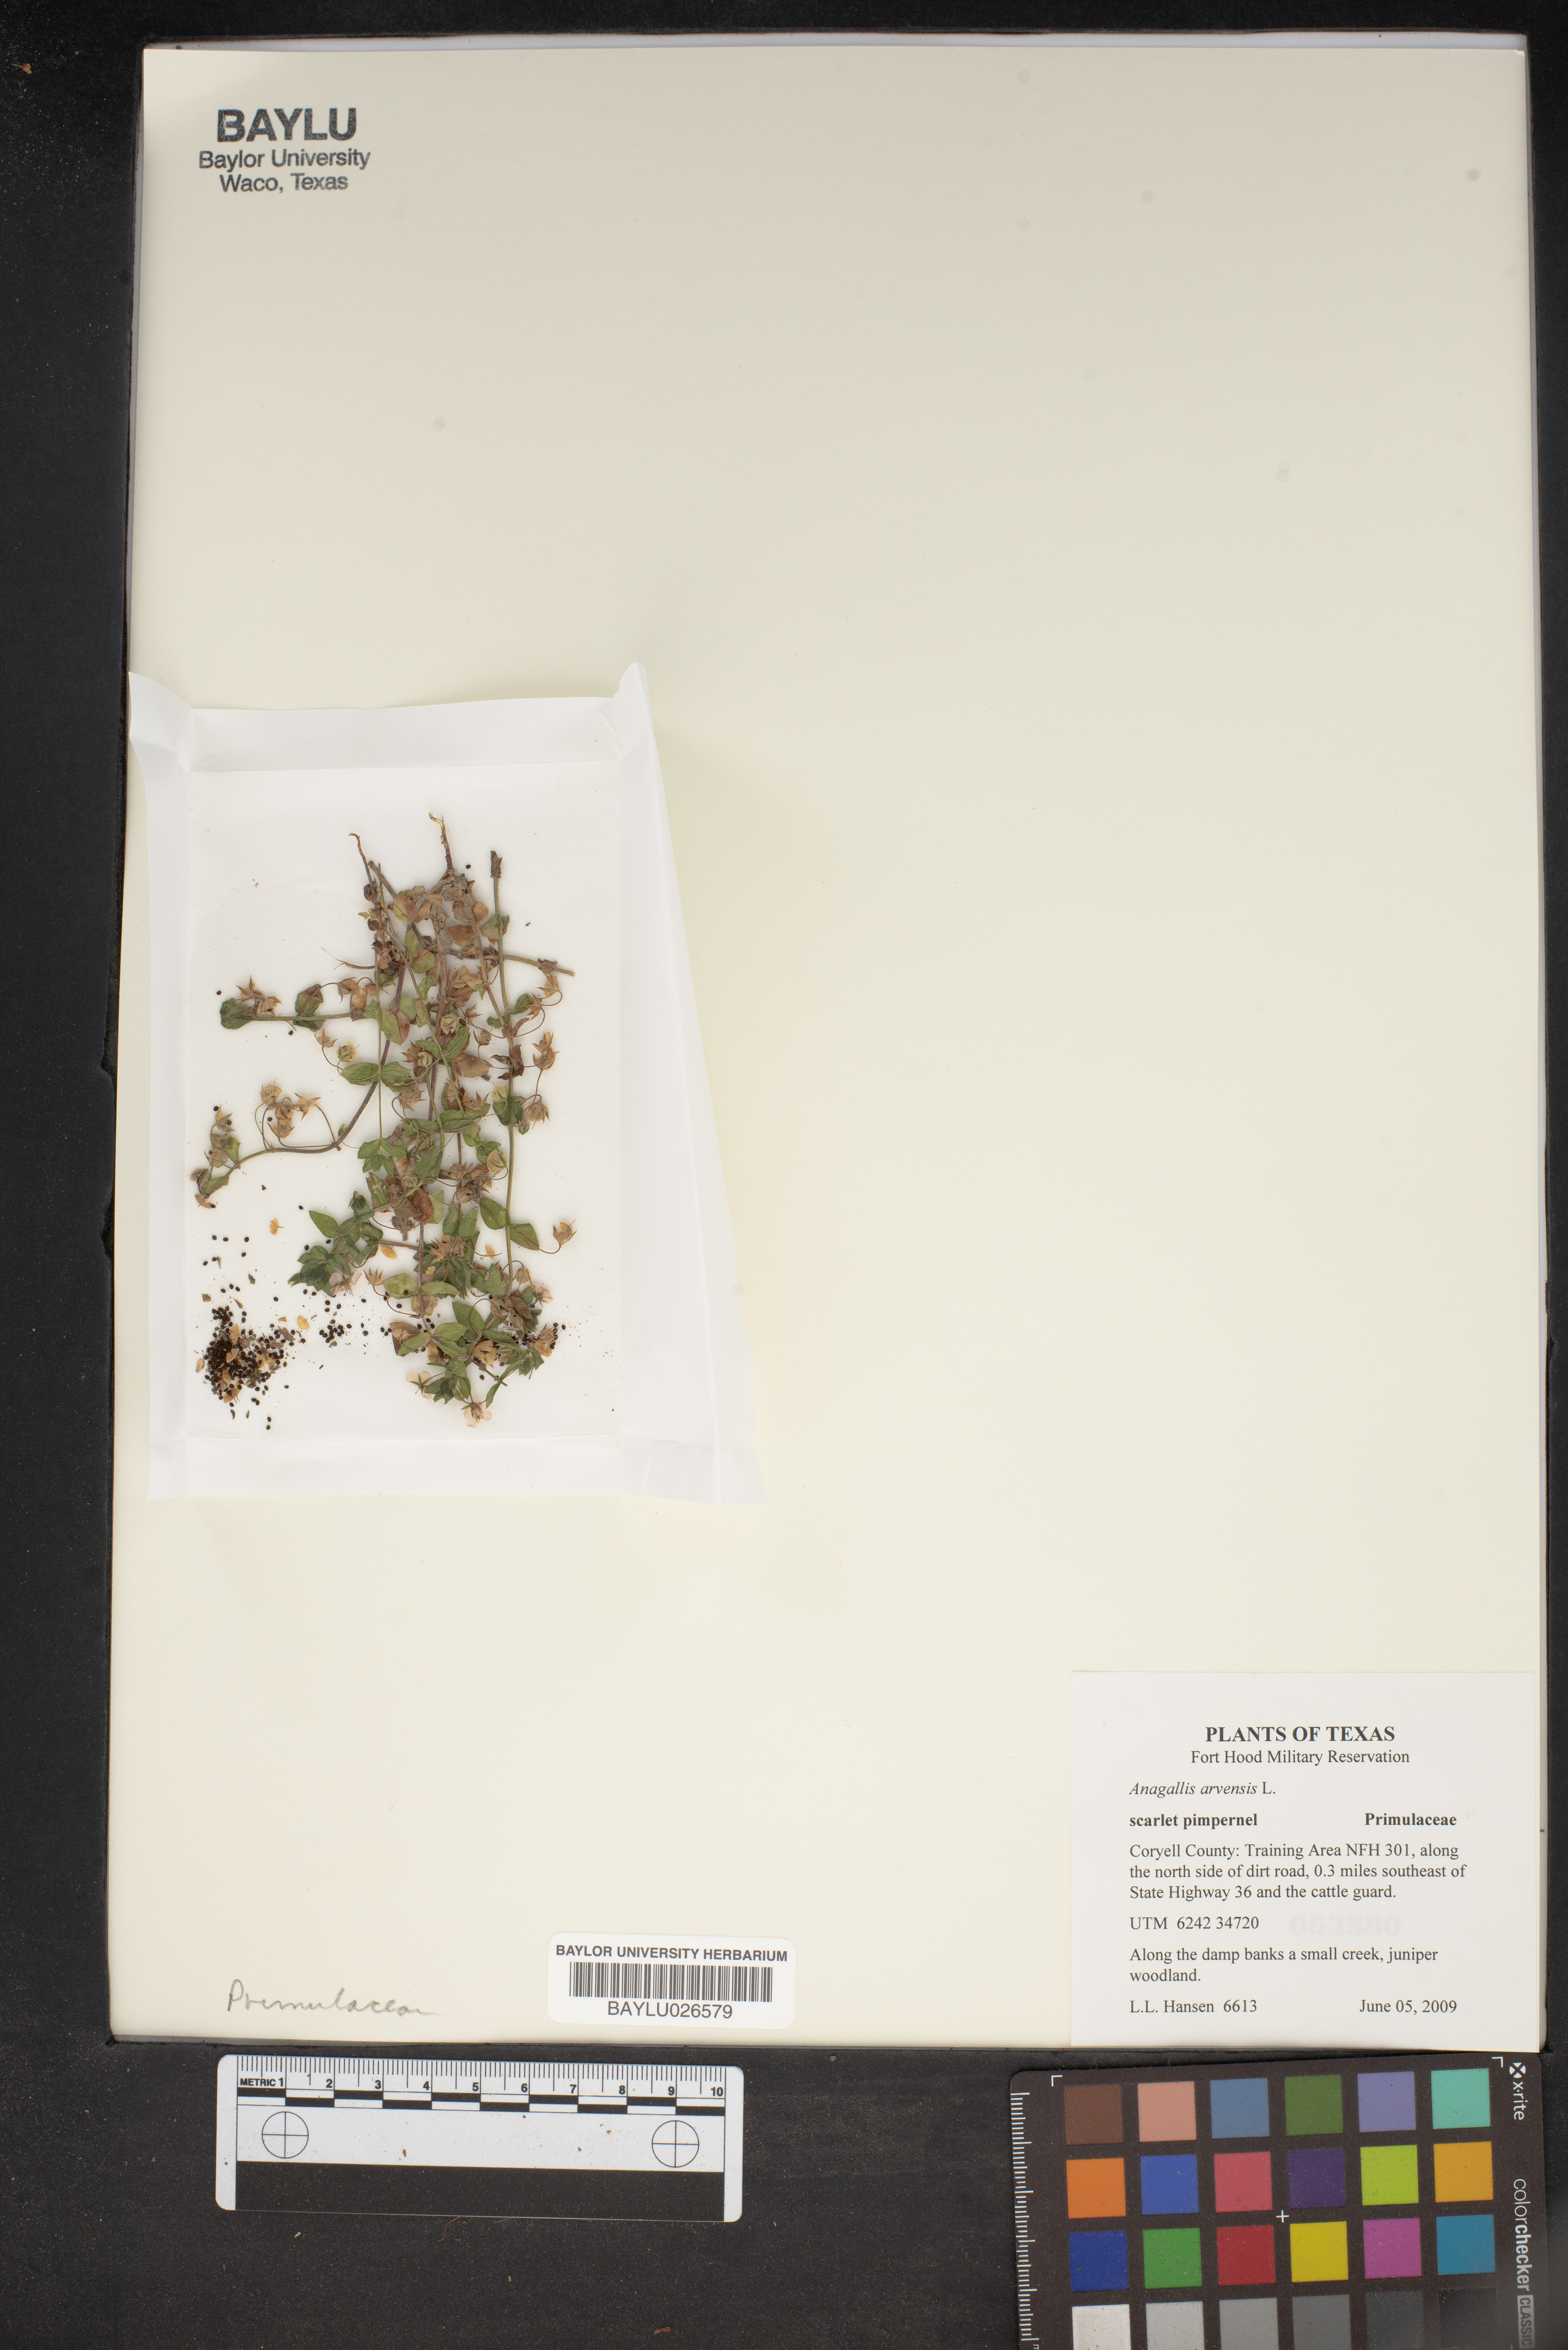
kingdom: Plantae
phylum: Tracheophyta
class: Magnoliopsida
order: Ericales
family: Primulaceae
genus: Lysimachia
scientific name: Lysimachia arvensis
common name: Scarlet pimpernel
